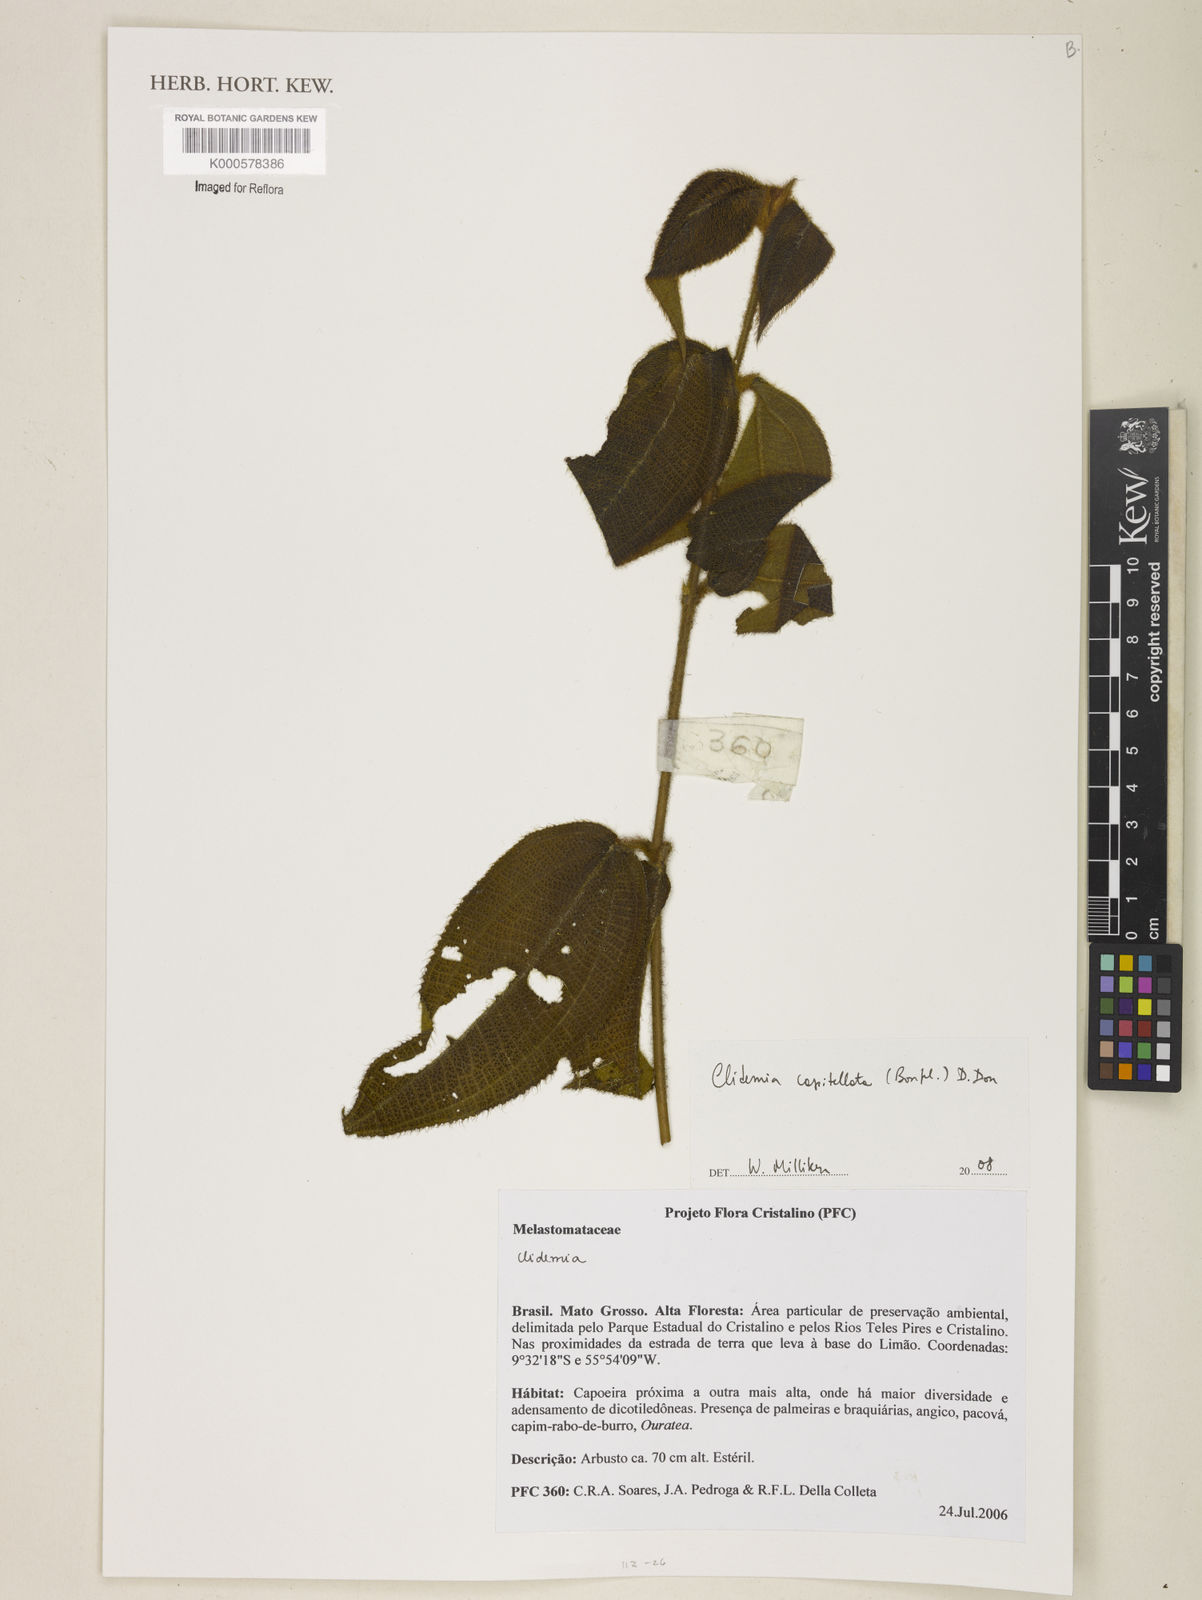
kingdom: Plantae
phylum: Tracheophyta
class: Magnoliopsida
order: Myrtales
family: Melastomataceae
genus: Miconia
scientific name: Miconia dependens
